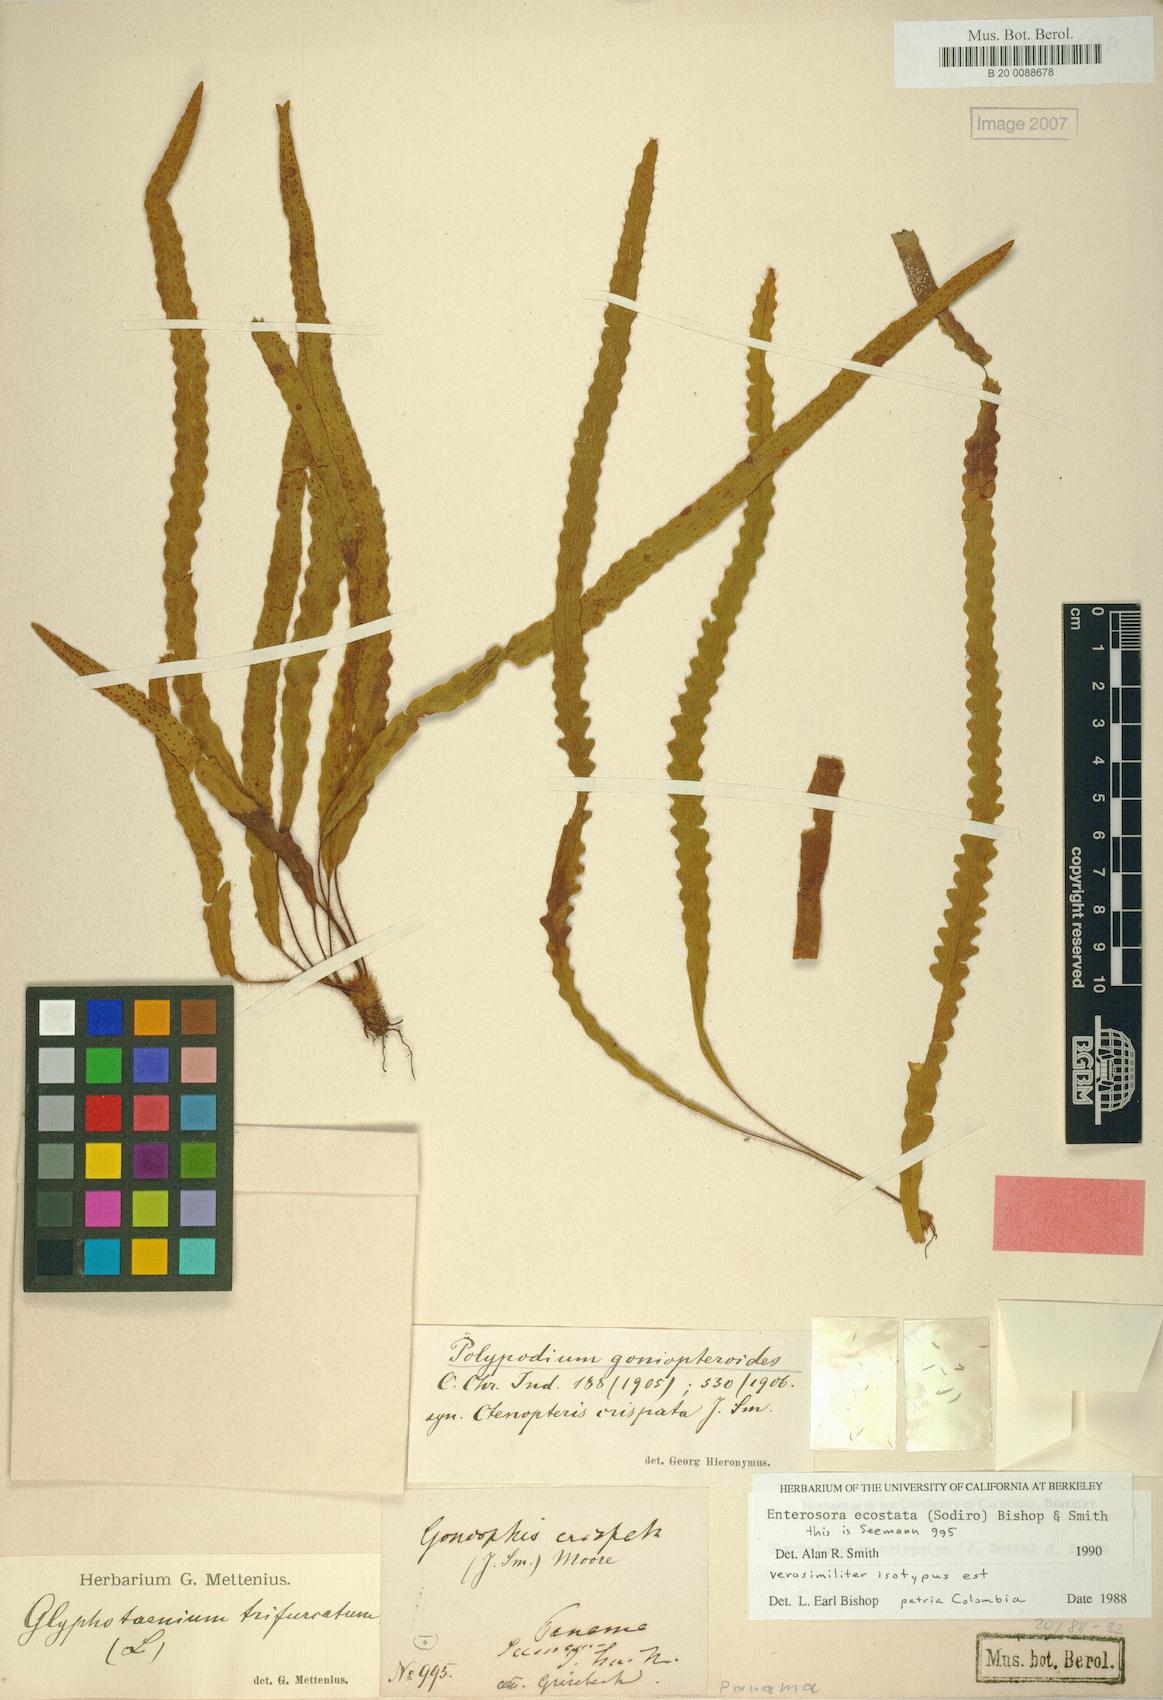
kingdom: Plantae
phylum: Tracheophyta
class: Polypodiopsida
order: Polypodiales
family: Polypodiaceae
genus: Enterosora
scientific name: Enterosora ecostata
